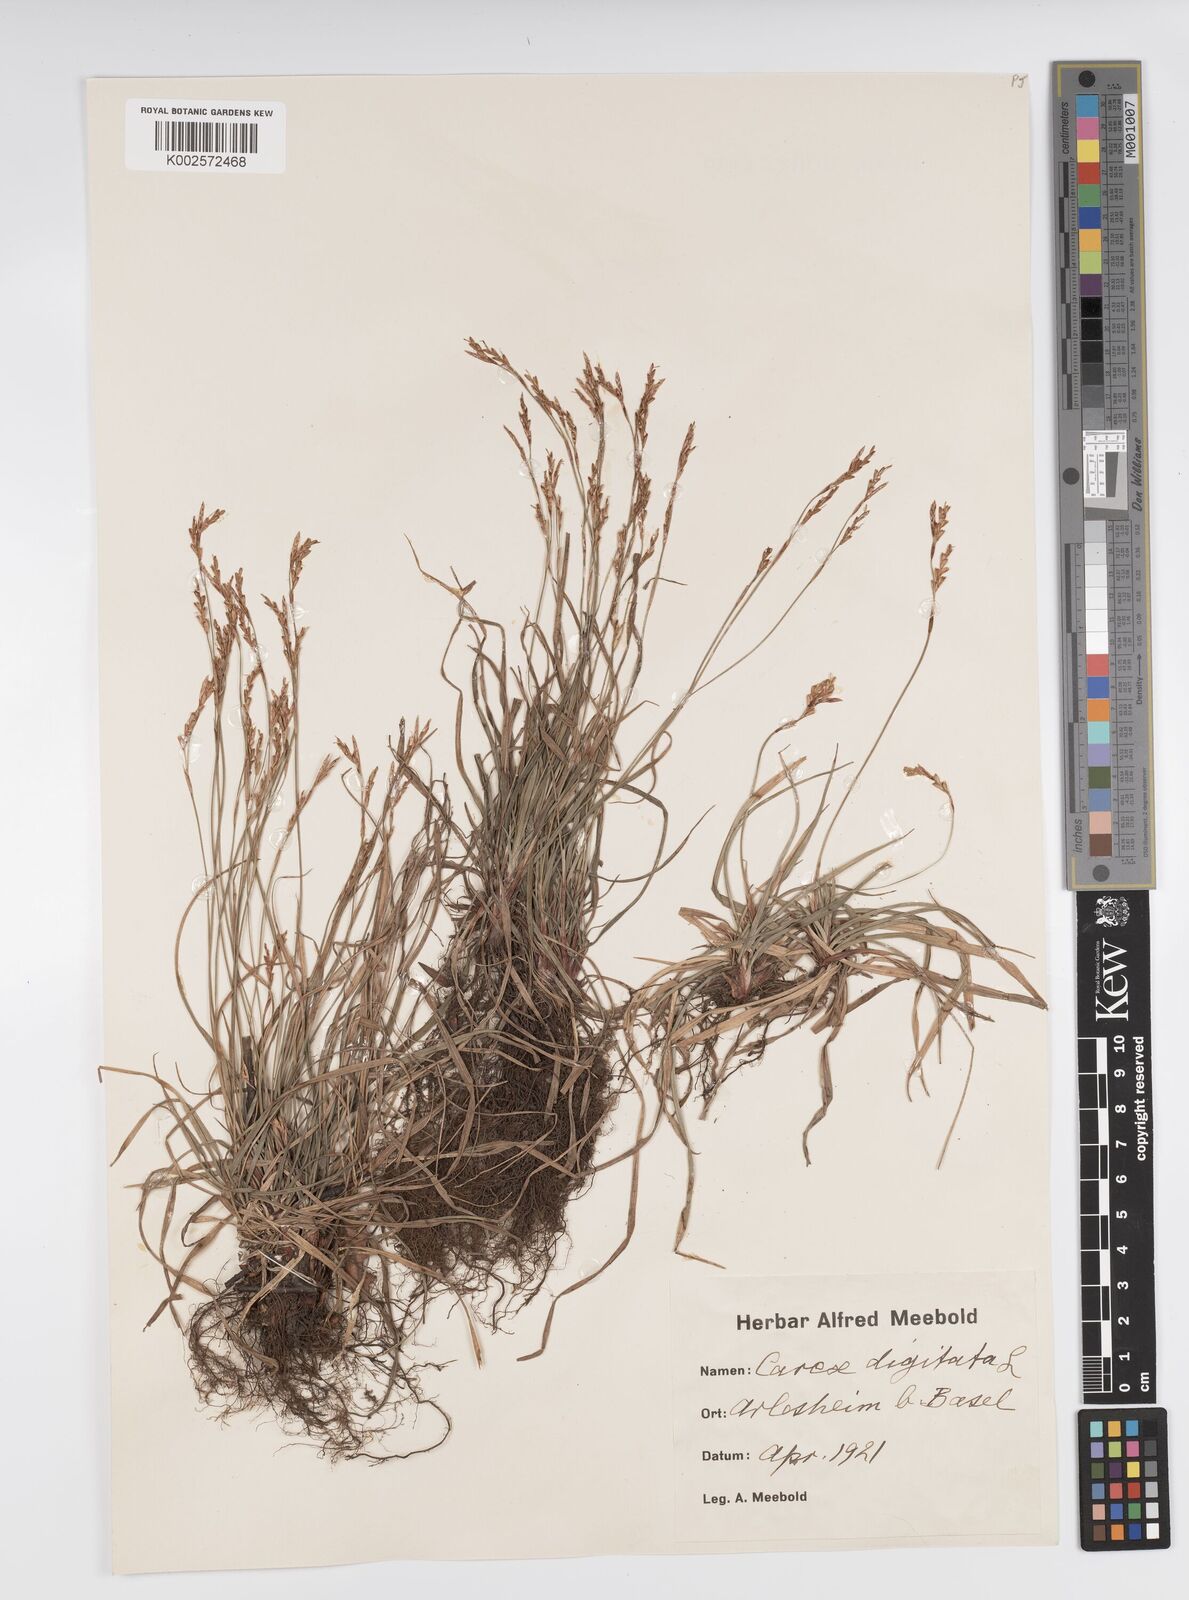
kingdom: Plantae
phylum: Tracheophyta
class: Liliopsida
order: Poales
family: Cyperaceae
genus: Carex
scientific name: Carex digitata
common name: Fingered sedge
